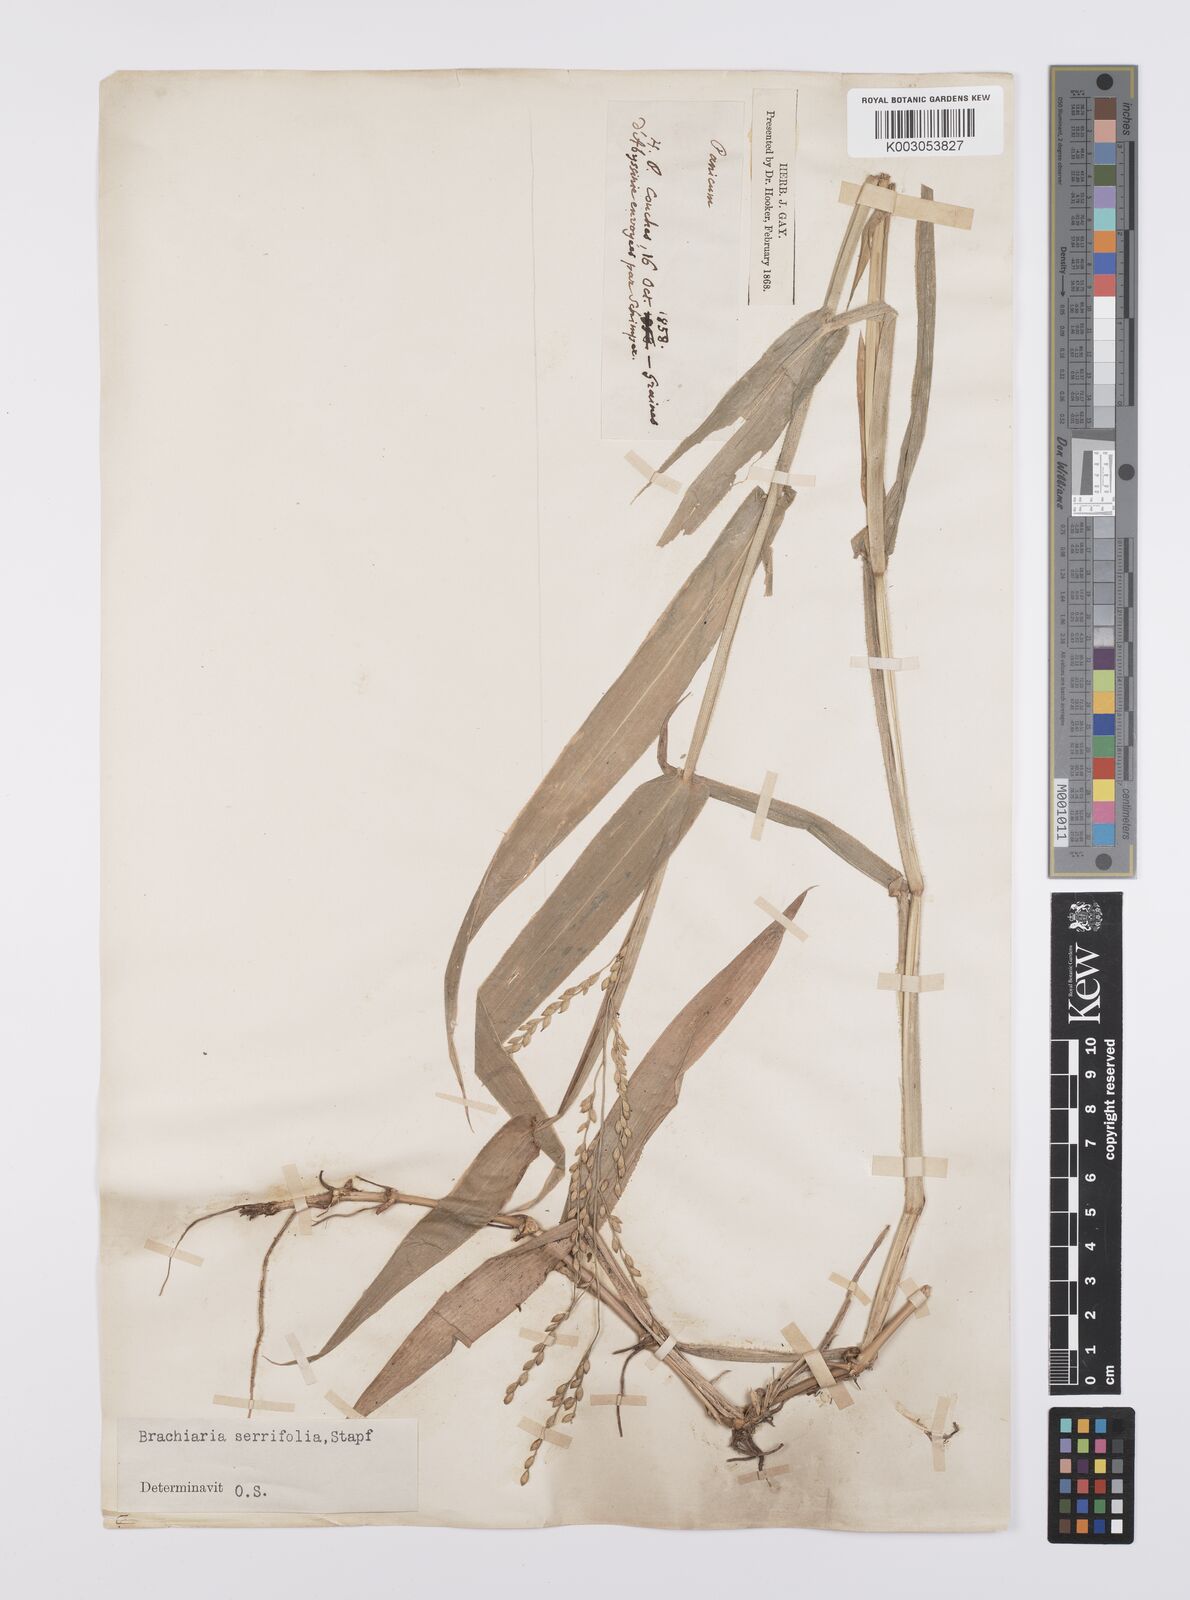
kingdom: Plantae
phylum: Tracheophyta
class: Liliopsida
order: Poales
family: Poaceae
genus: Urochloa
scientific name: Urochloa serrifolia
